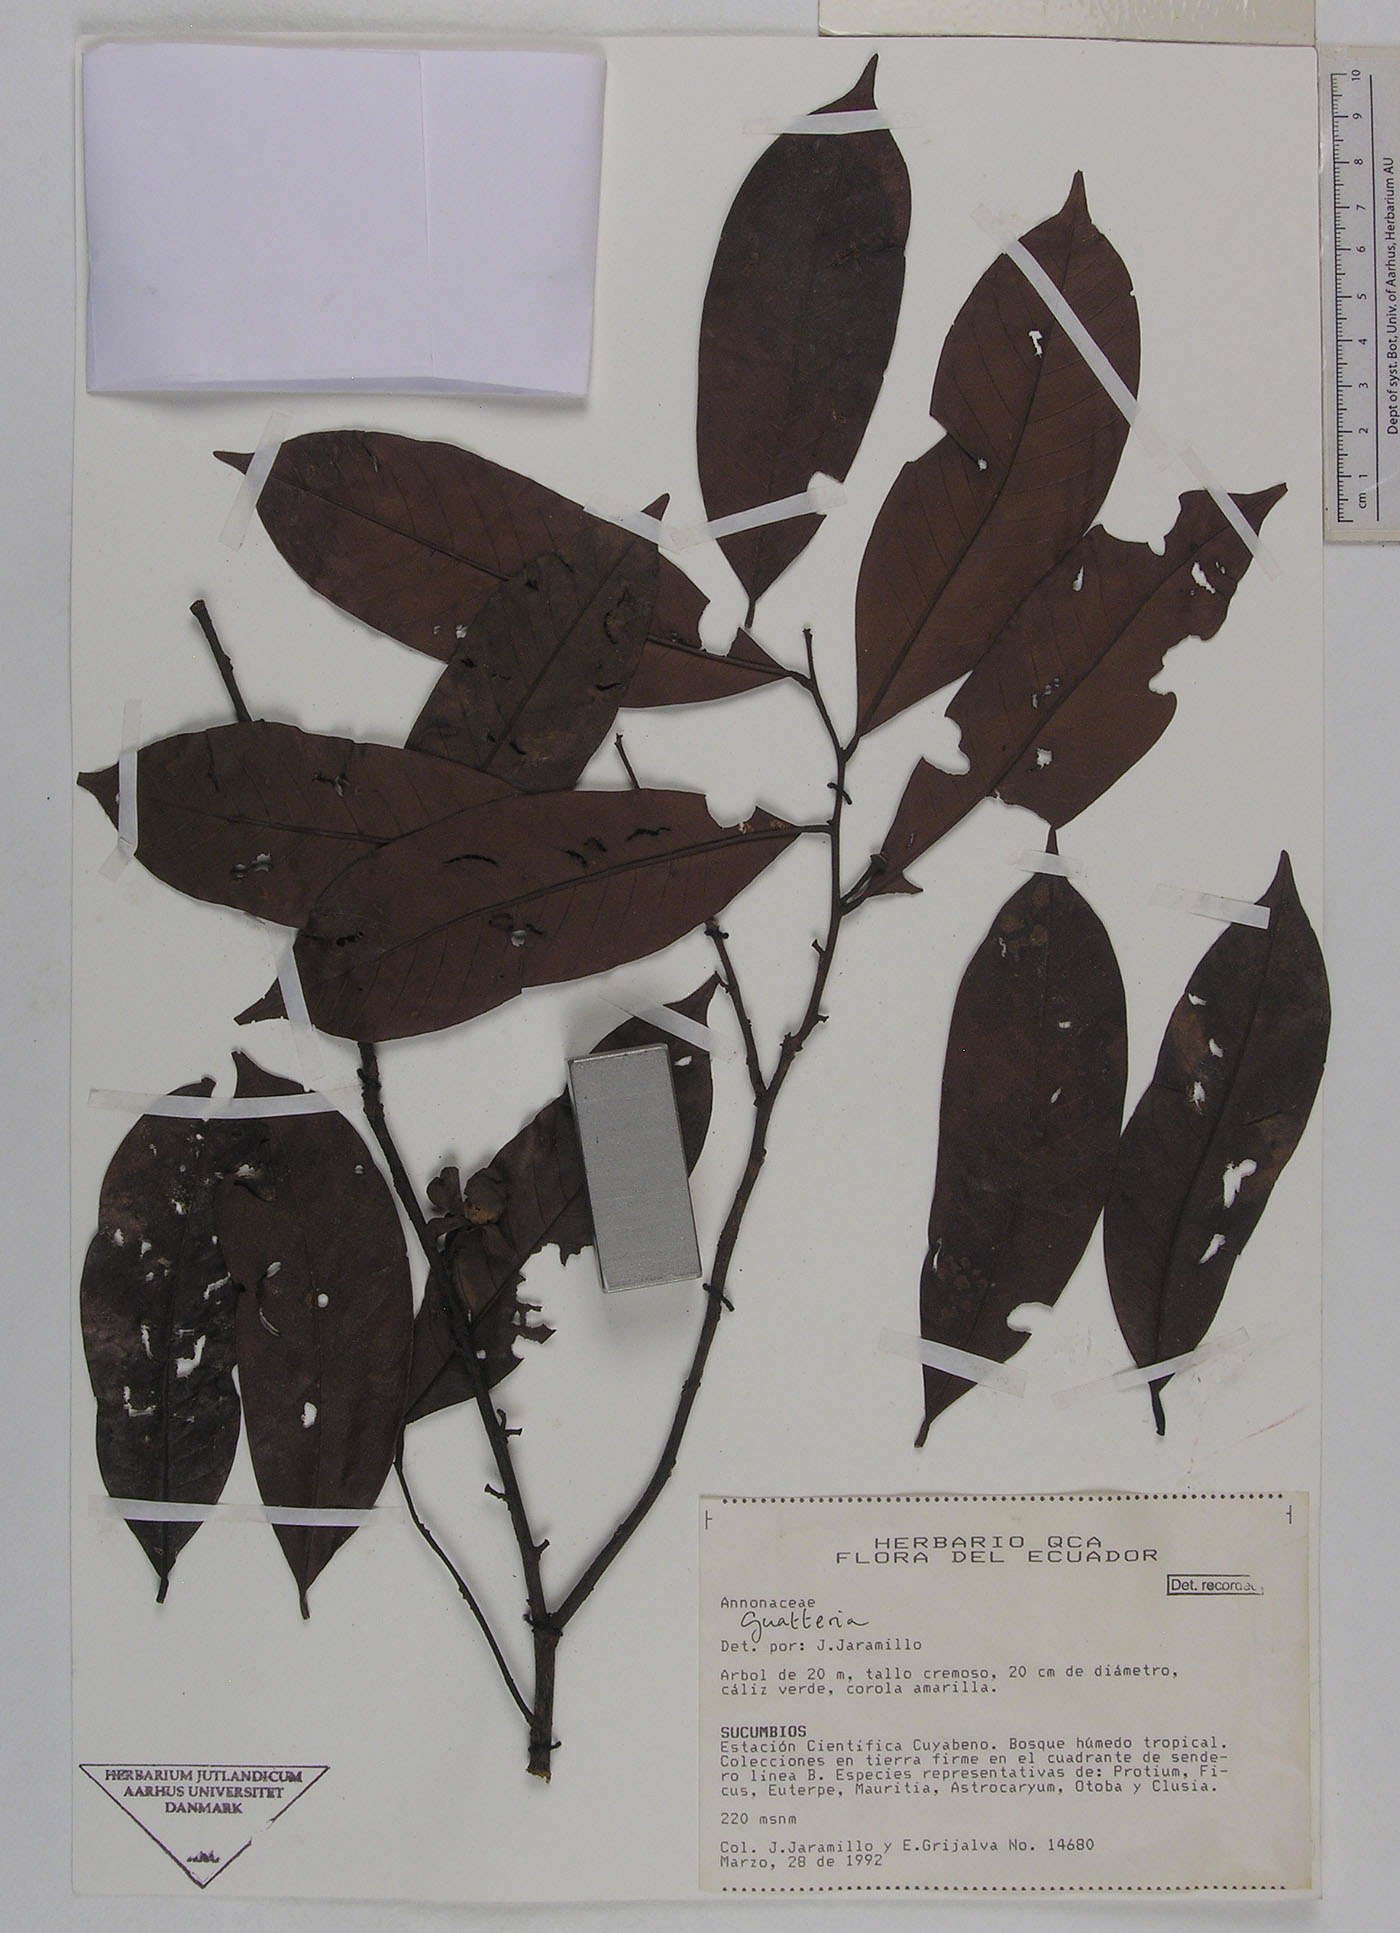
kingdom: Plantae
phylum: Tracheophyta
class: Magnoliopsida
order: Magnoliales
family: Annonaceae
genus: Guatteria
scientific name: Guatteria punctata
